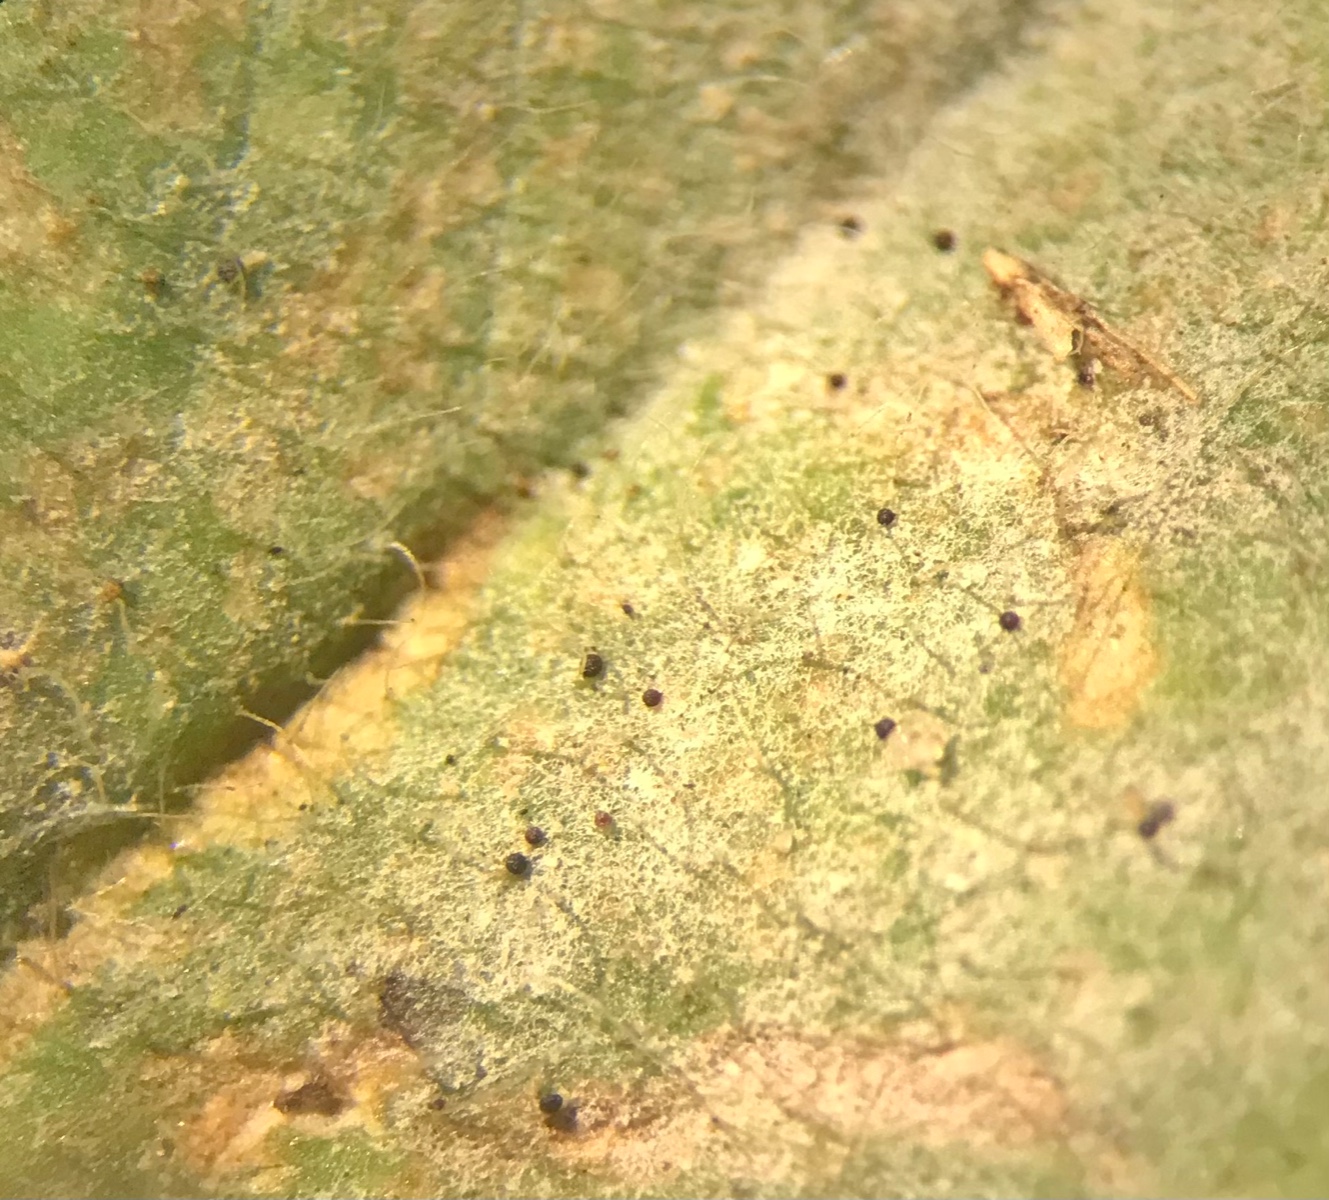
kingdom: Fungi
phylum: Ascomycota
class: Leotiomycetes
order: Helotiales
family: Erysiphaceae
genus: Erysiphe
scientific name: Erysiphe trifoliorum
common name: kløver-meldug
